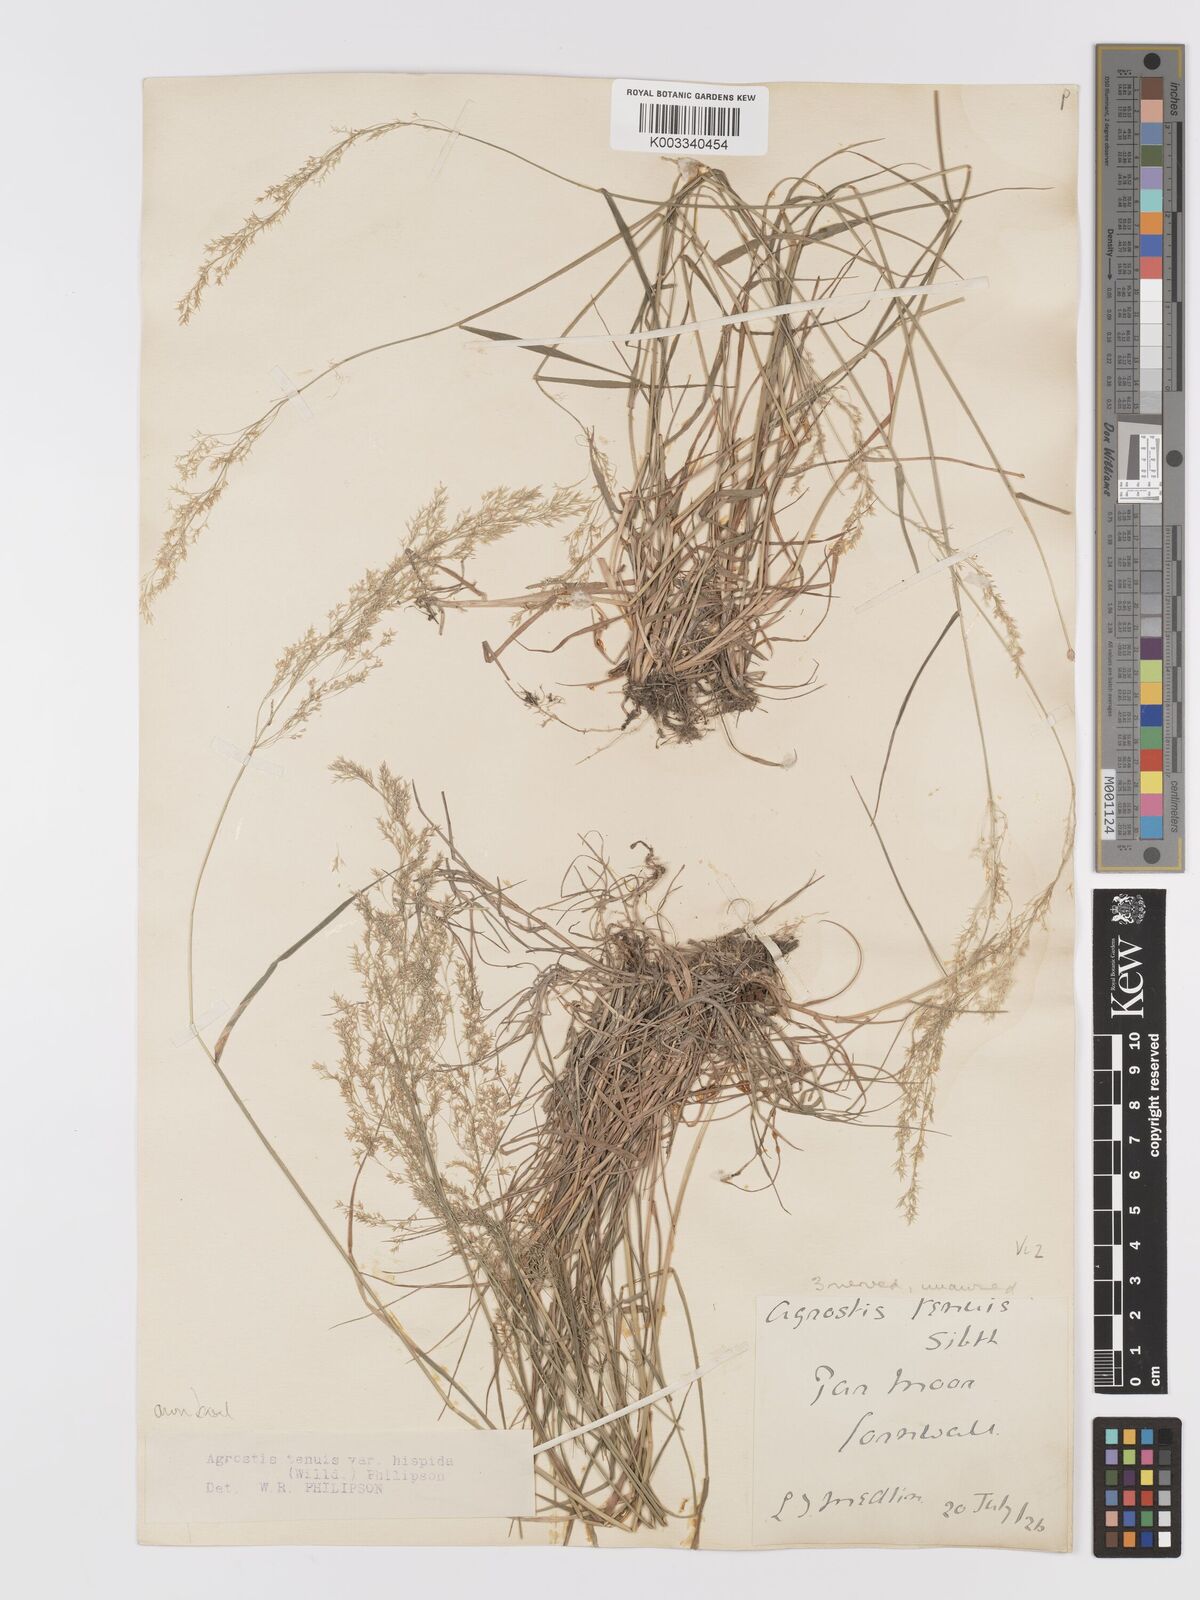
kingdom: Plantae
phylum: Tracheophyta
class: Liliopsida
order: Poales
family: Poaceae
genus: Agrostis
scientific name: Agrostis capillaris
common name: Colonial bentgrass
